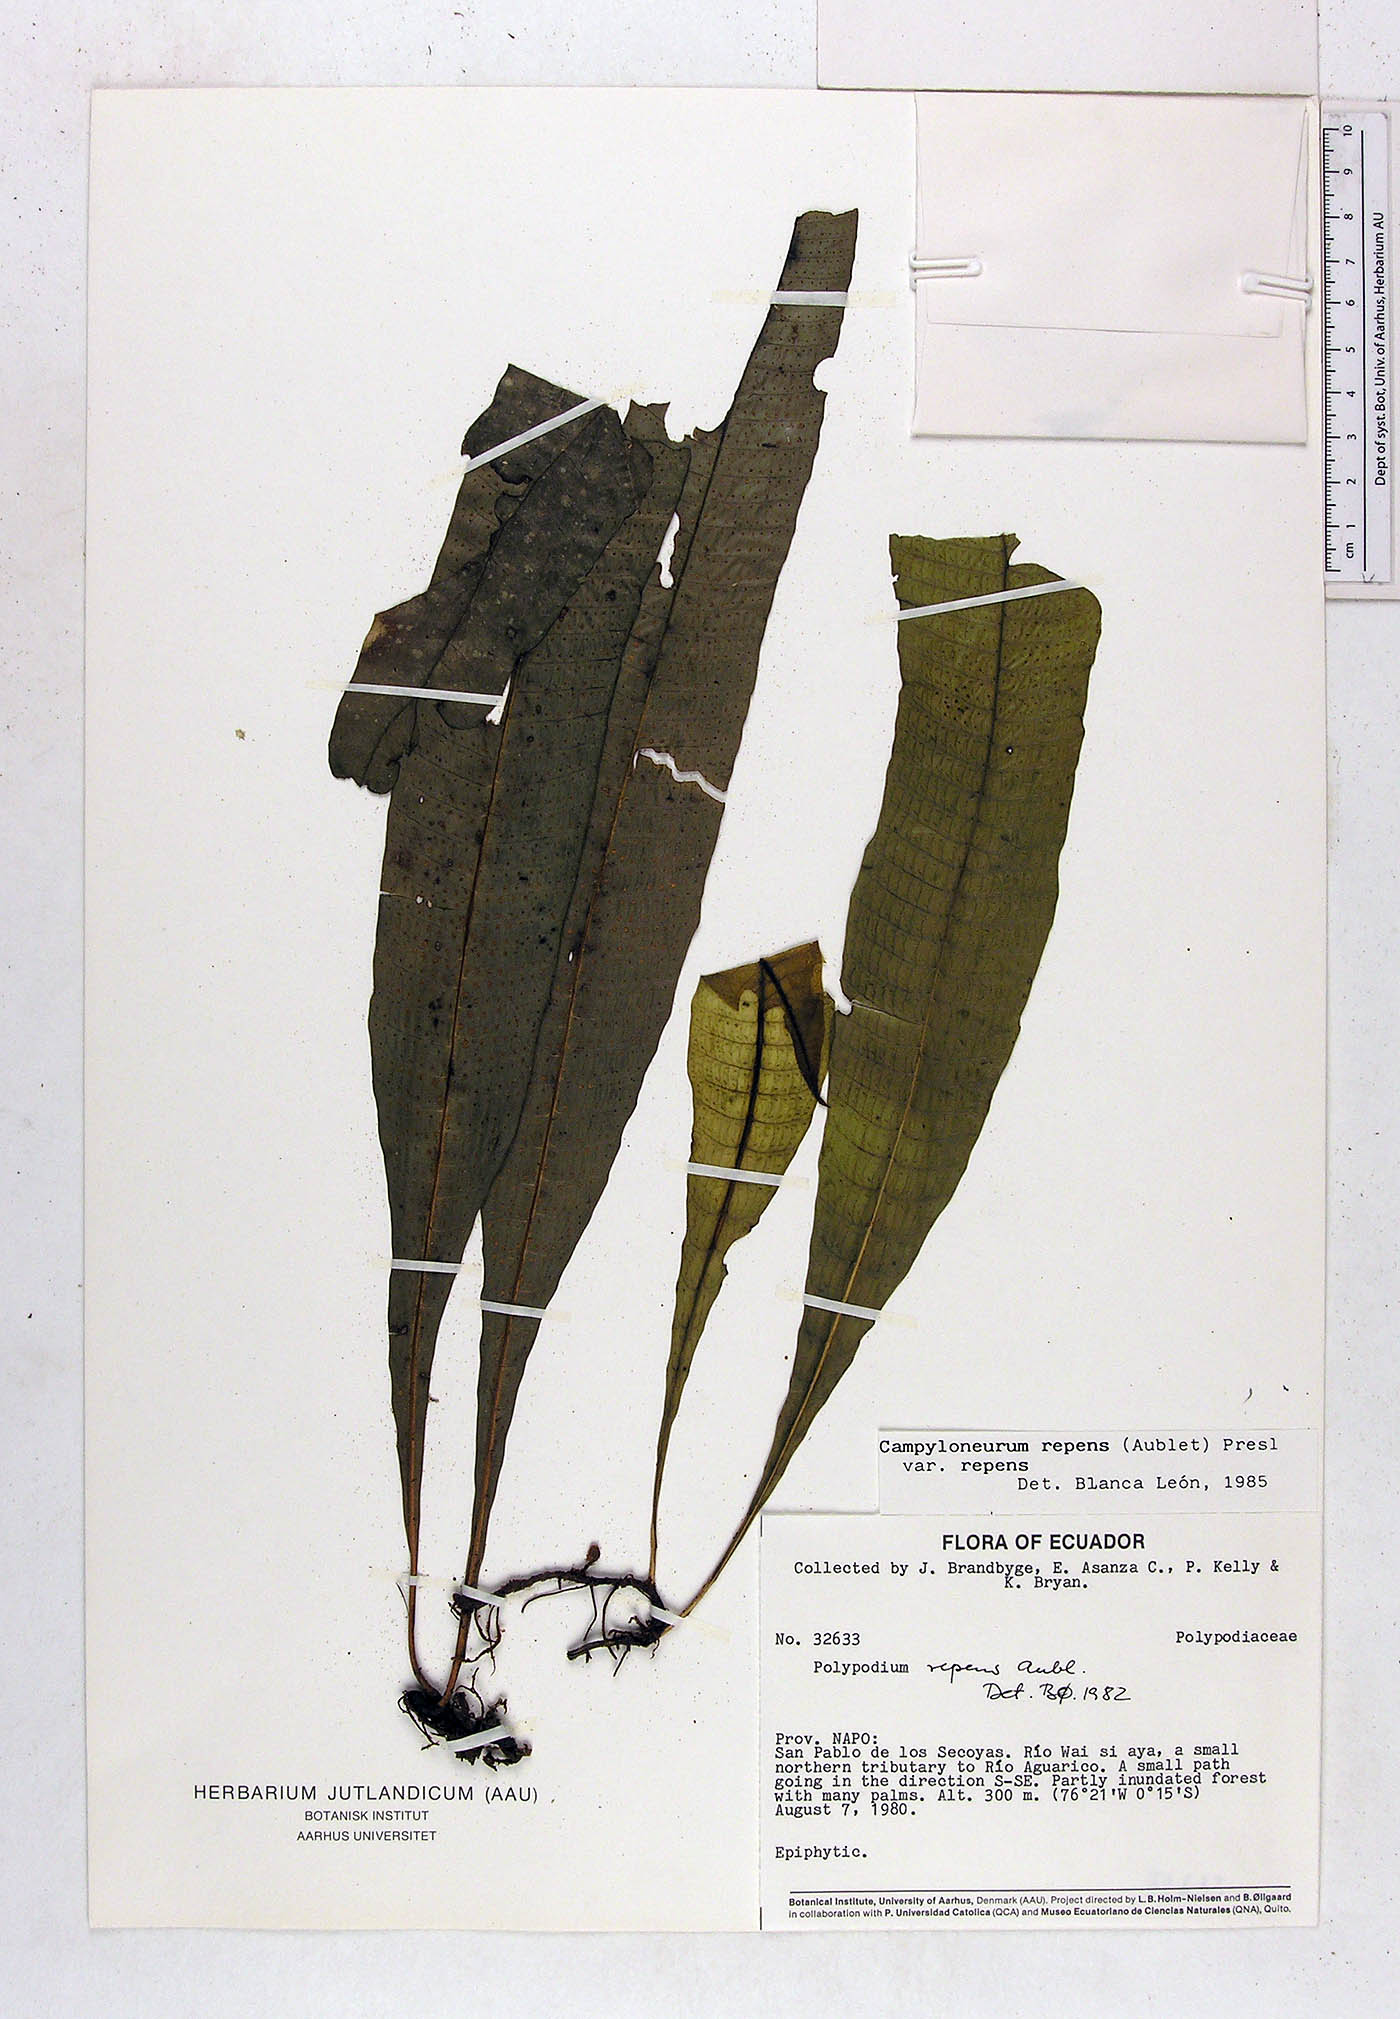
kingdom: Plantae
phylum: Tracheophyta
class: Polypodiopsida
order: Polypodiales
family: Polypodiaceae
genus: Campyloneurum
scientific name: Campyloneurum repens
